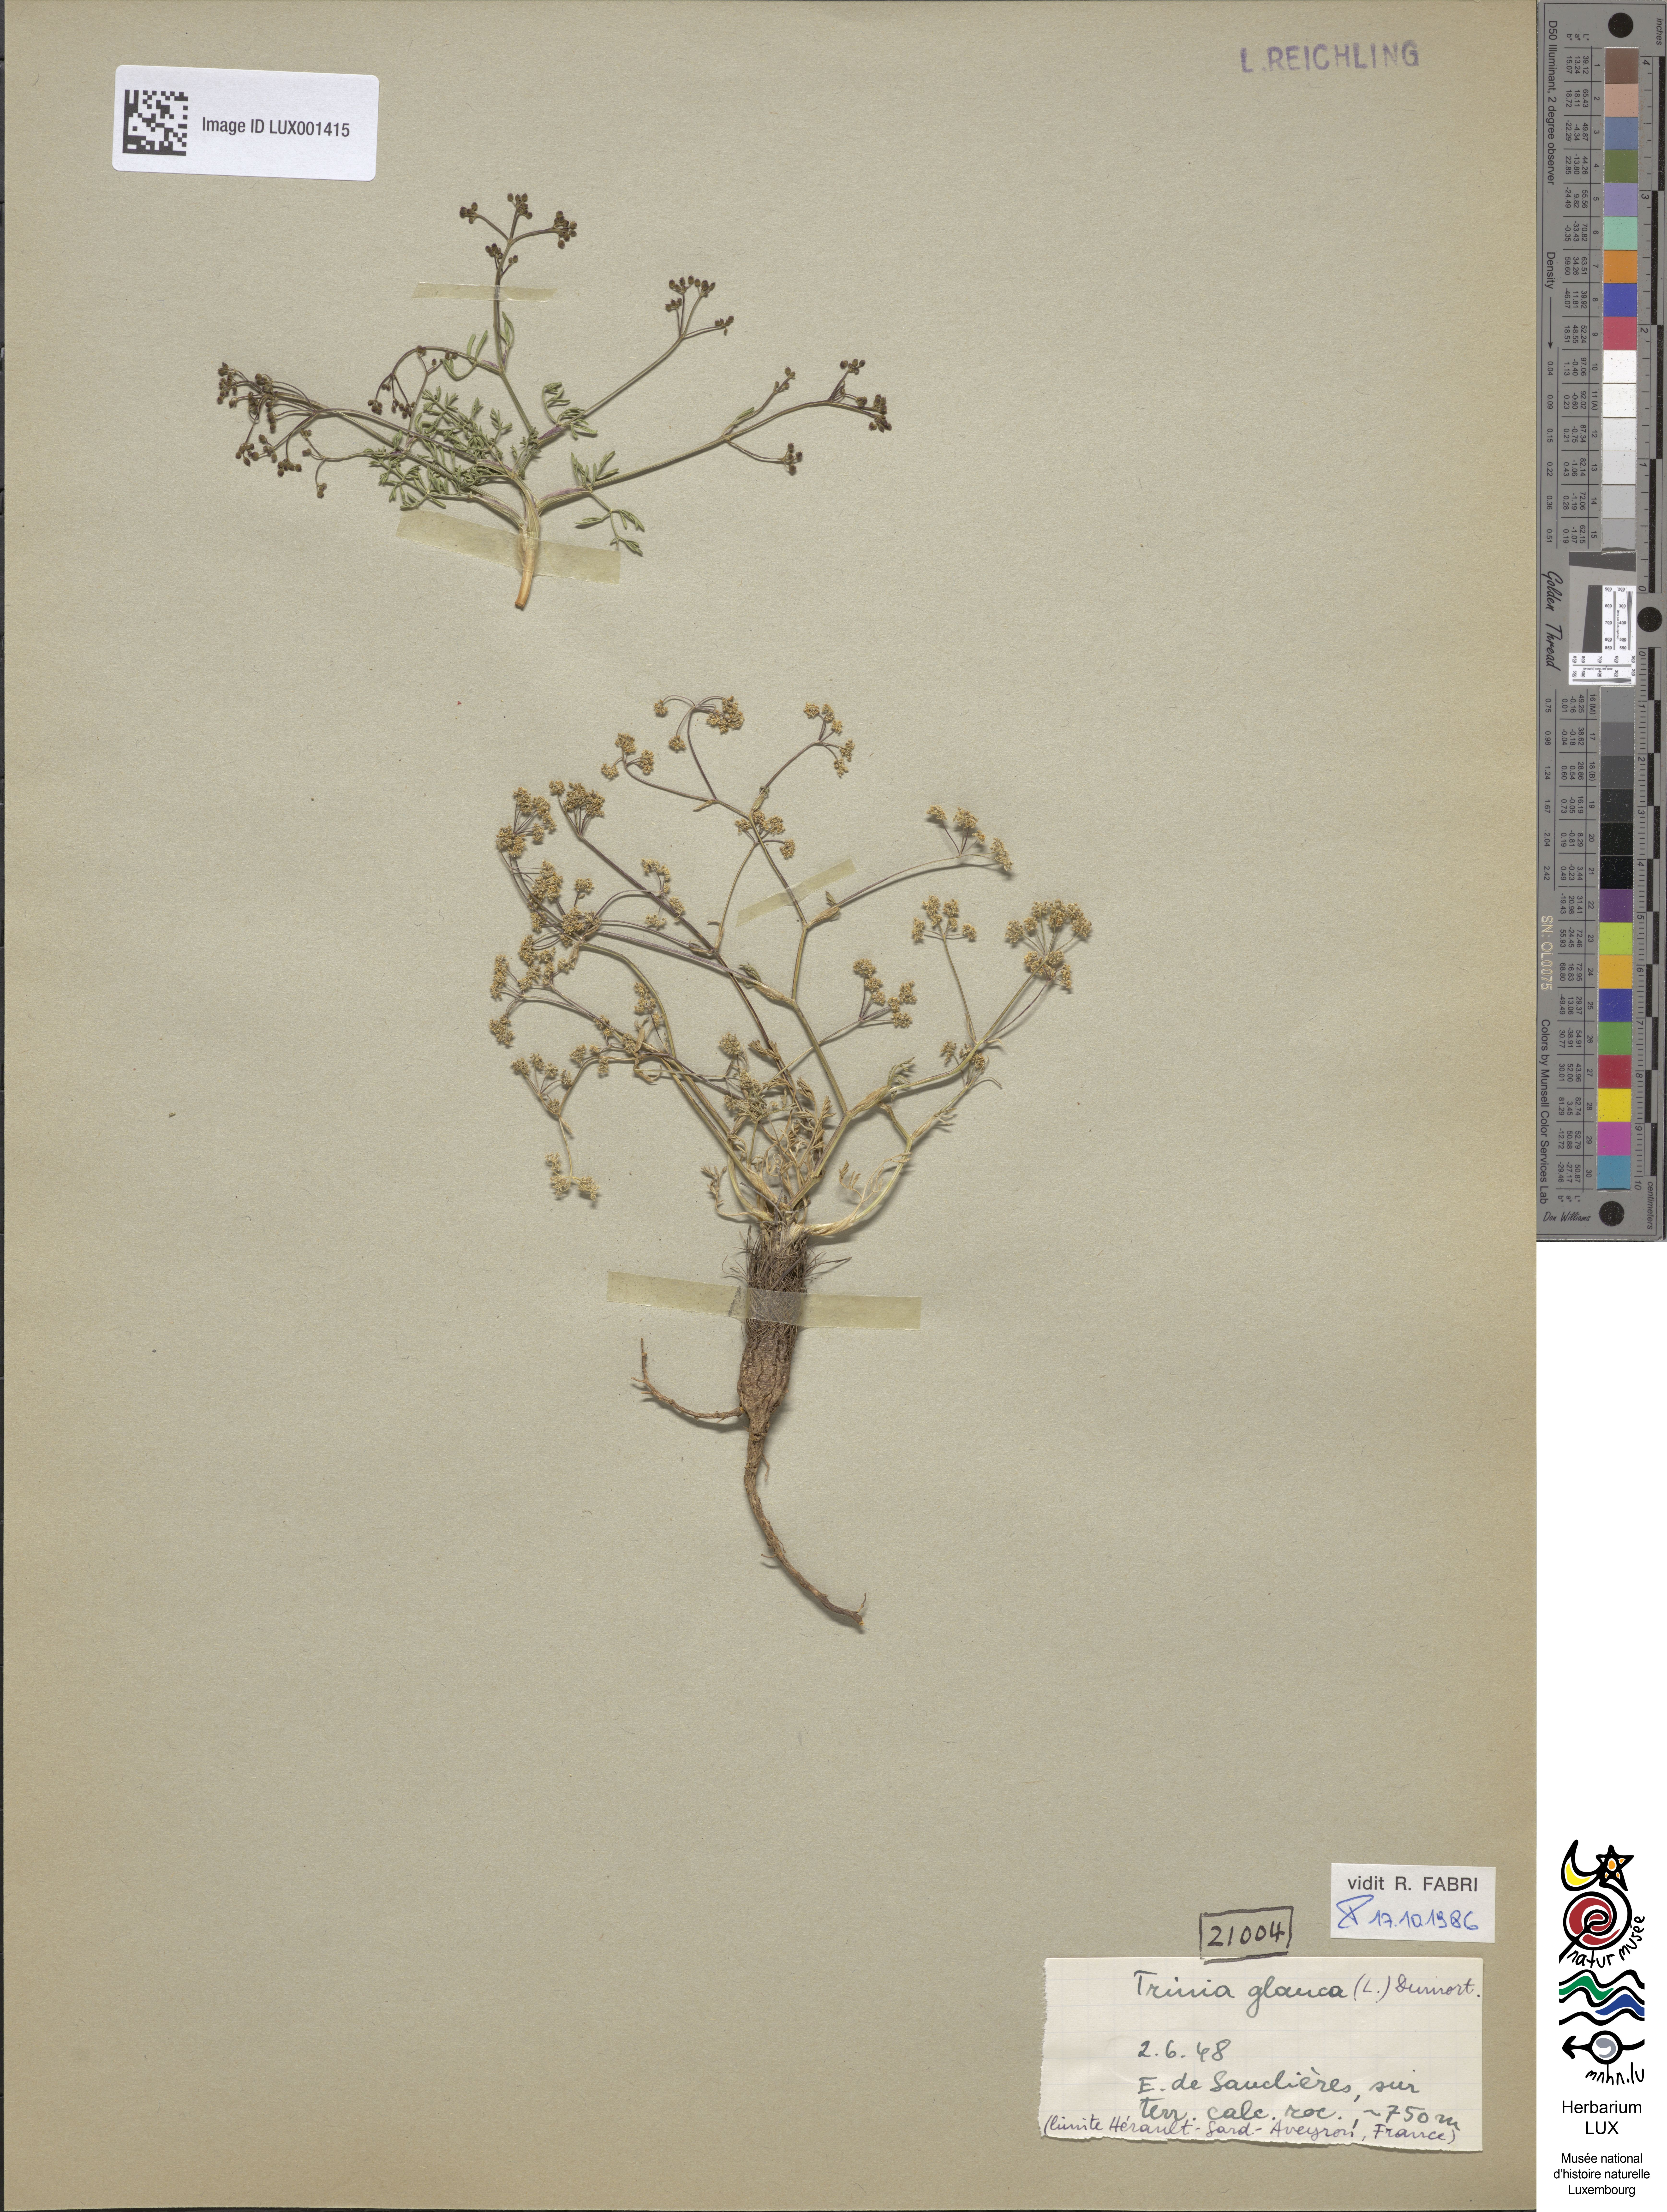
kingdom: Plantae
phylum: Tracheophyta
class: Magnoliopsida
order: Apiales
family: Apiaceae
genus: Trinia
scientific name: Trinia glauca
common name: Honewort
